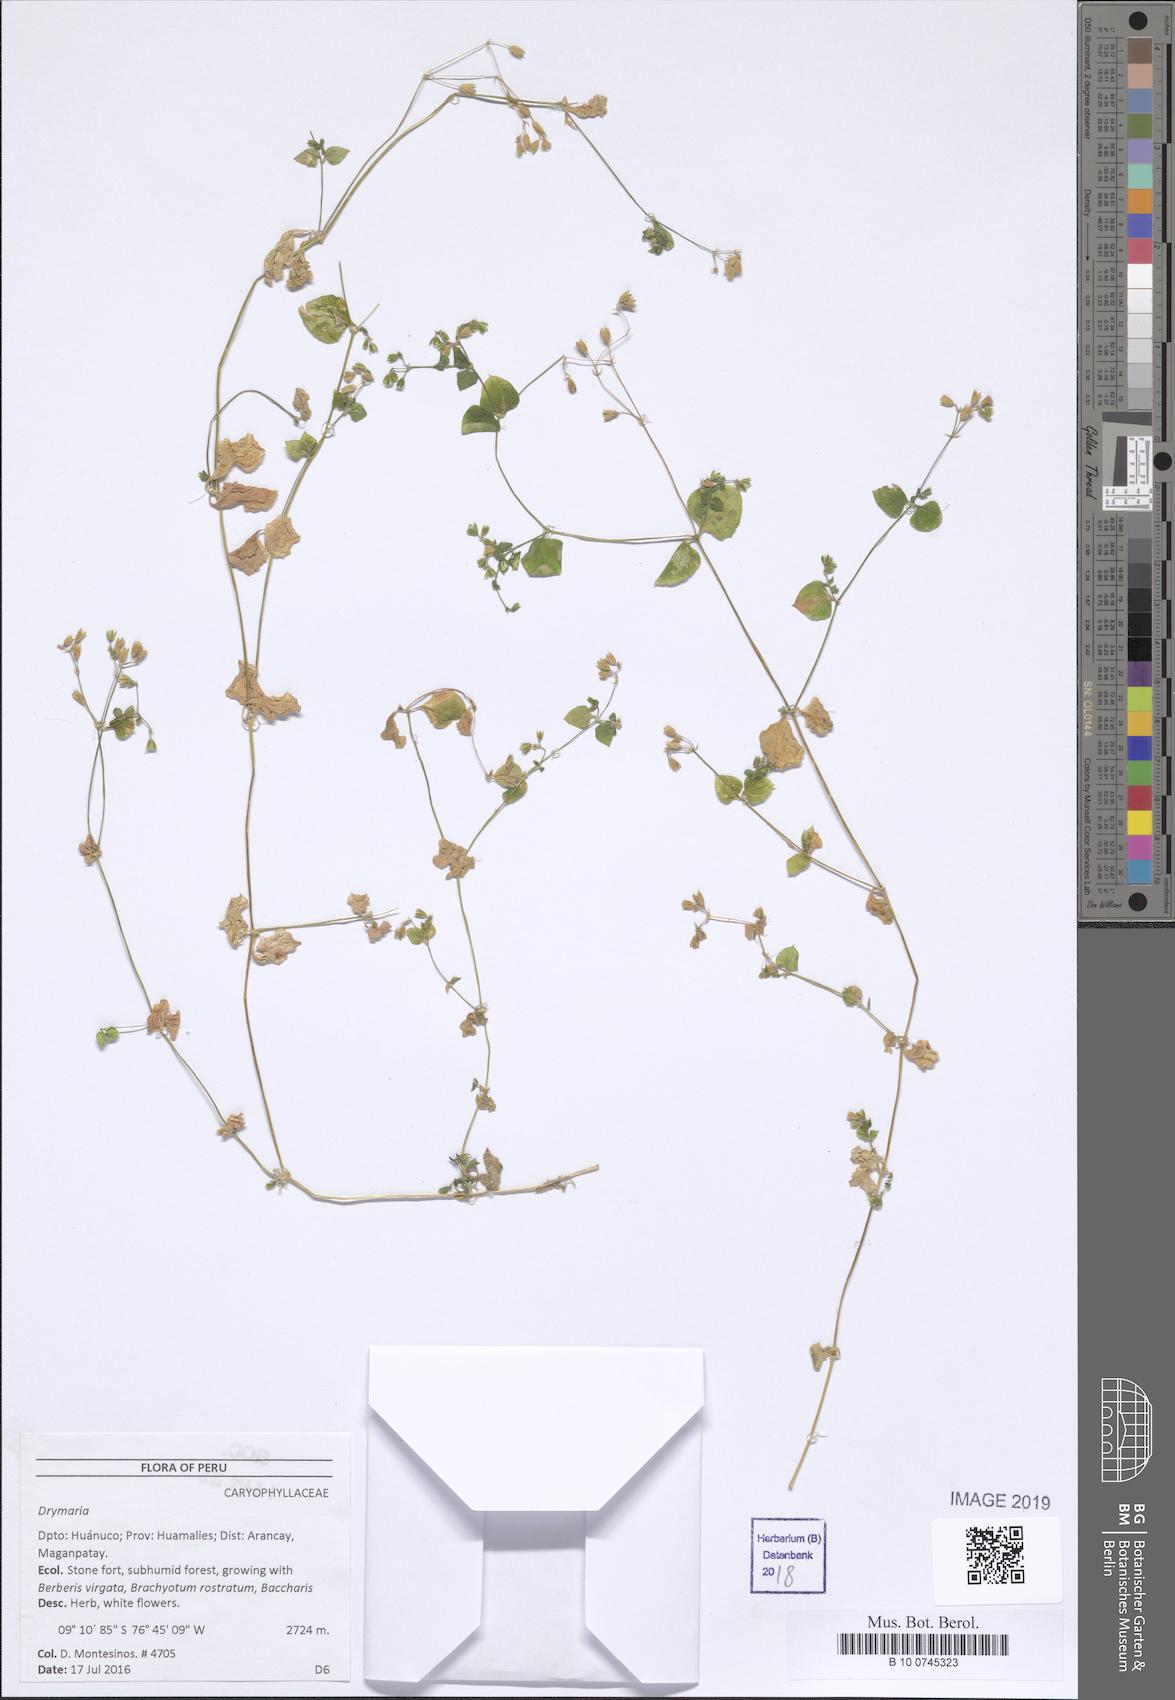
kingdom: Plantae
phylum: Tracheophyta
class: Magnoliopsida
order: Caryophyllales
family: Caryophyllaceae
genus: Drymaria
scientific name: Drymaria
